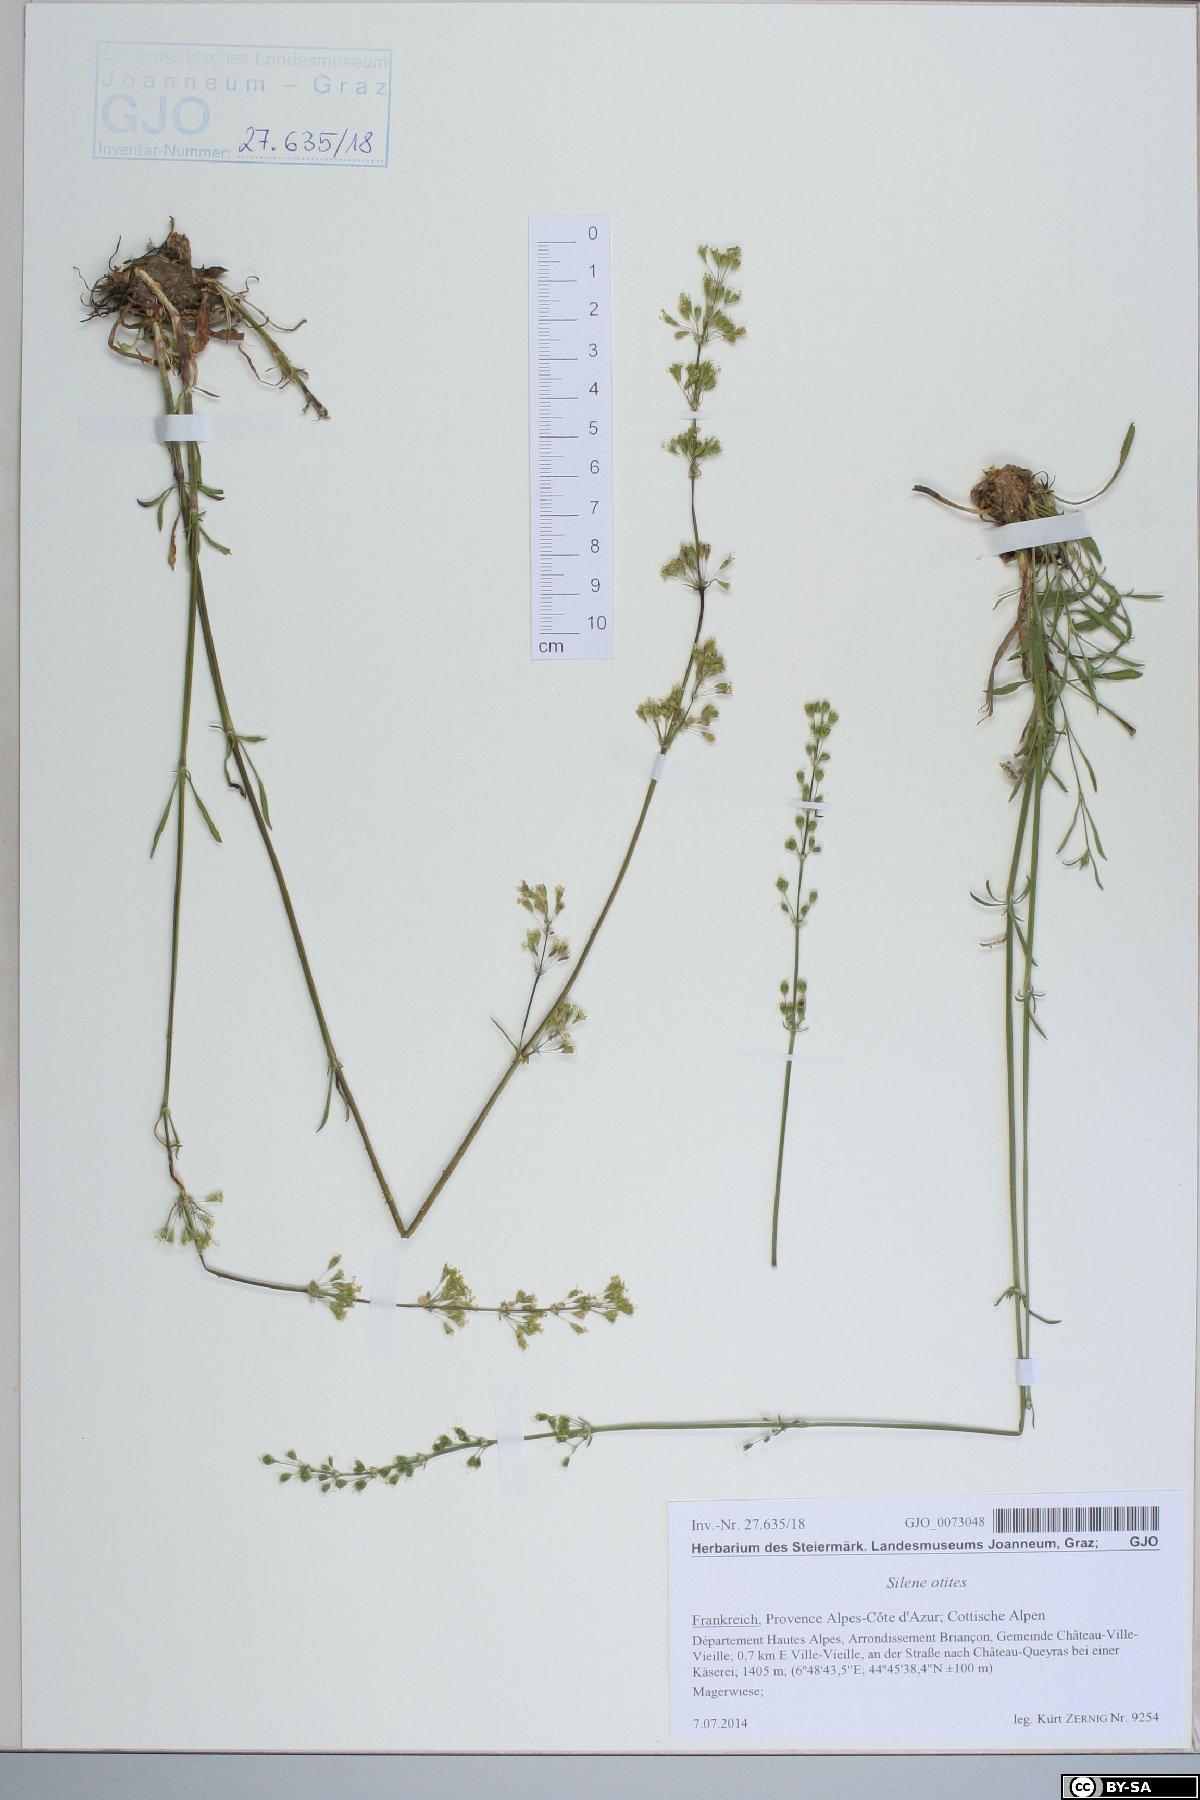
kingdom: Plantae
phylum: Tracheophyta
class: Magnoliopsida
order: Caryophyllales
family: Caryophyllaceae
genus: Silene
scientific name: Silene otites
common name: Spanish catchfly
